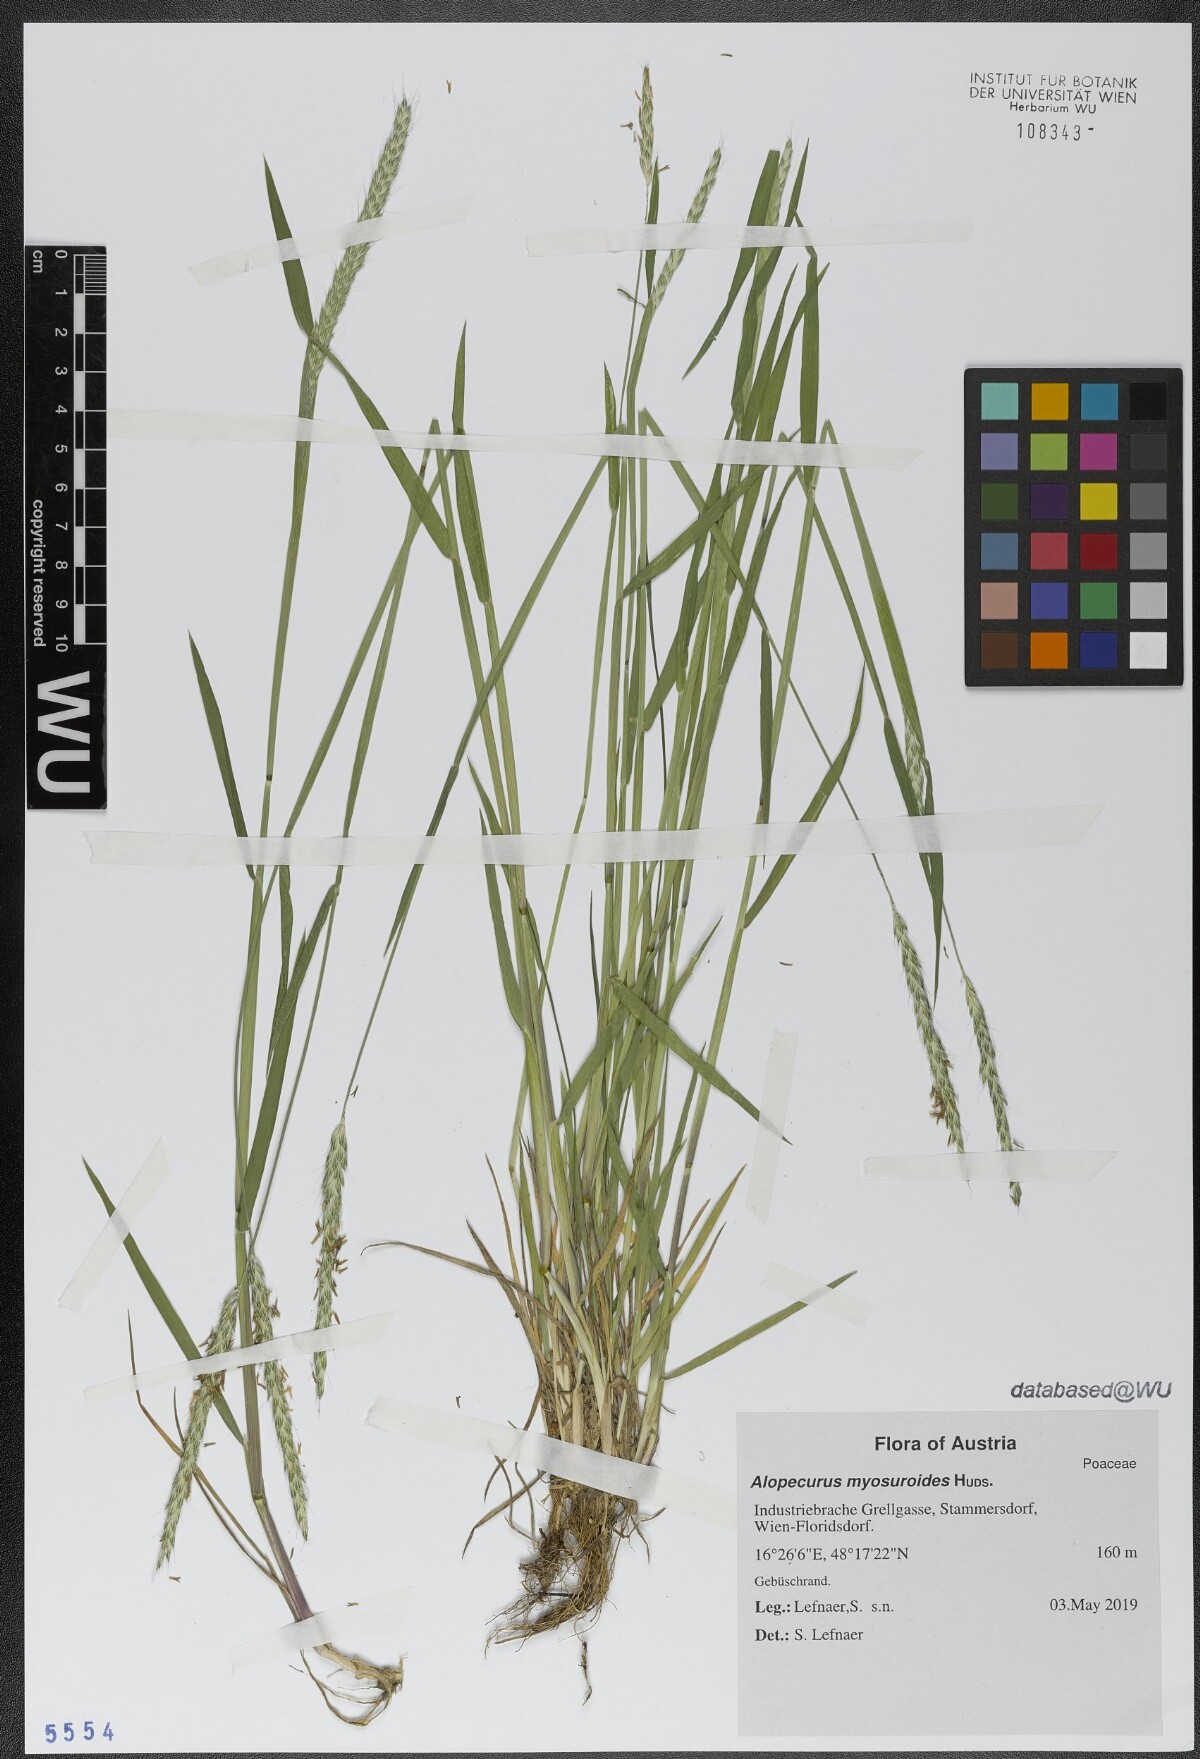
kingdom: Plantae
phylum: Tracheophyta
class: Liliopsida
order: Poales
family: Poaceae
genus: Alopecurus
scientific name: Alopecurus myosuroides
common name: Black-grass
